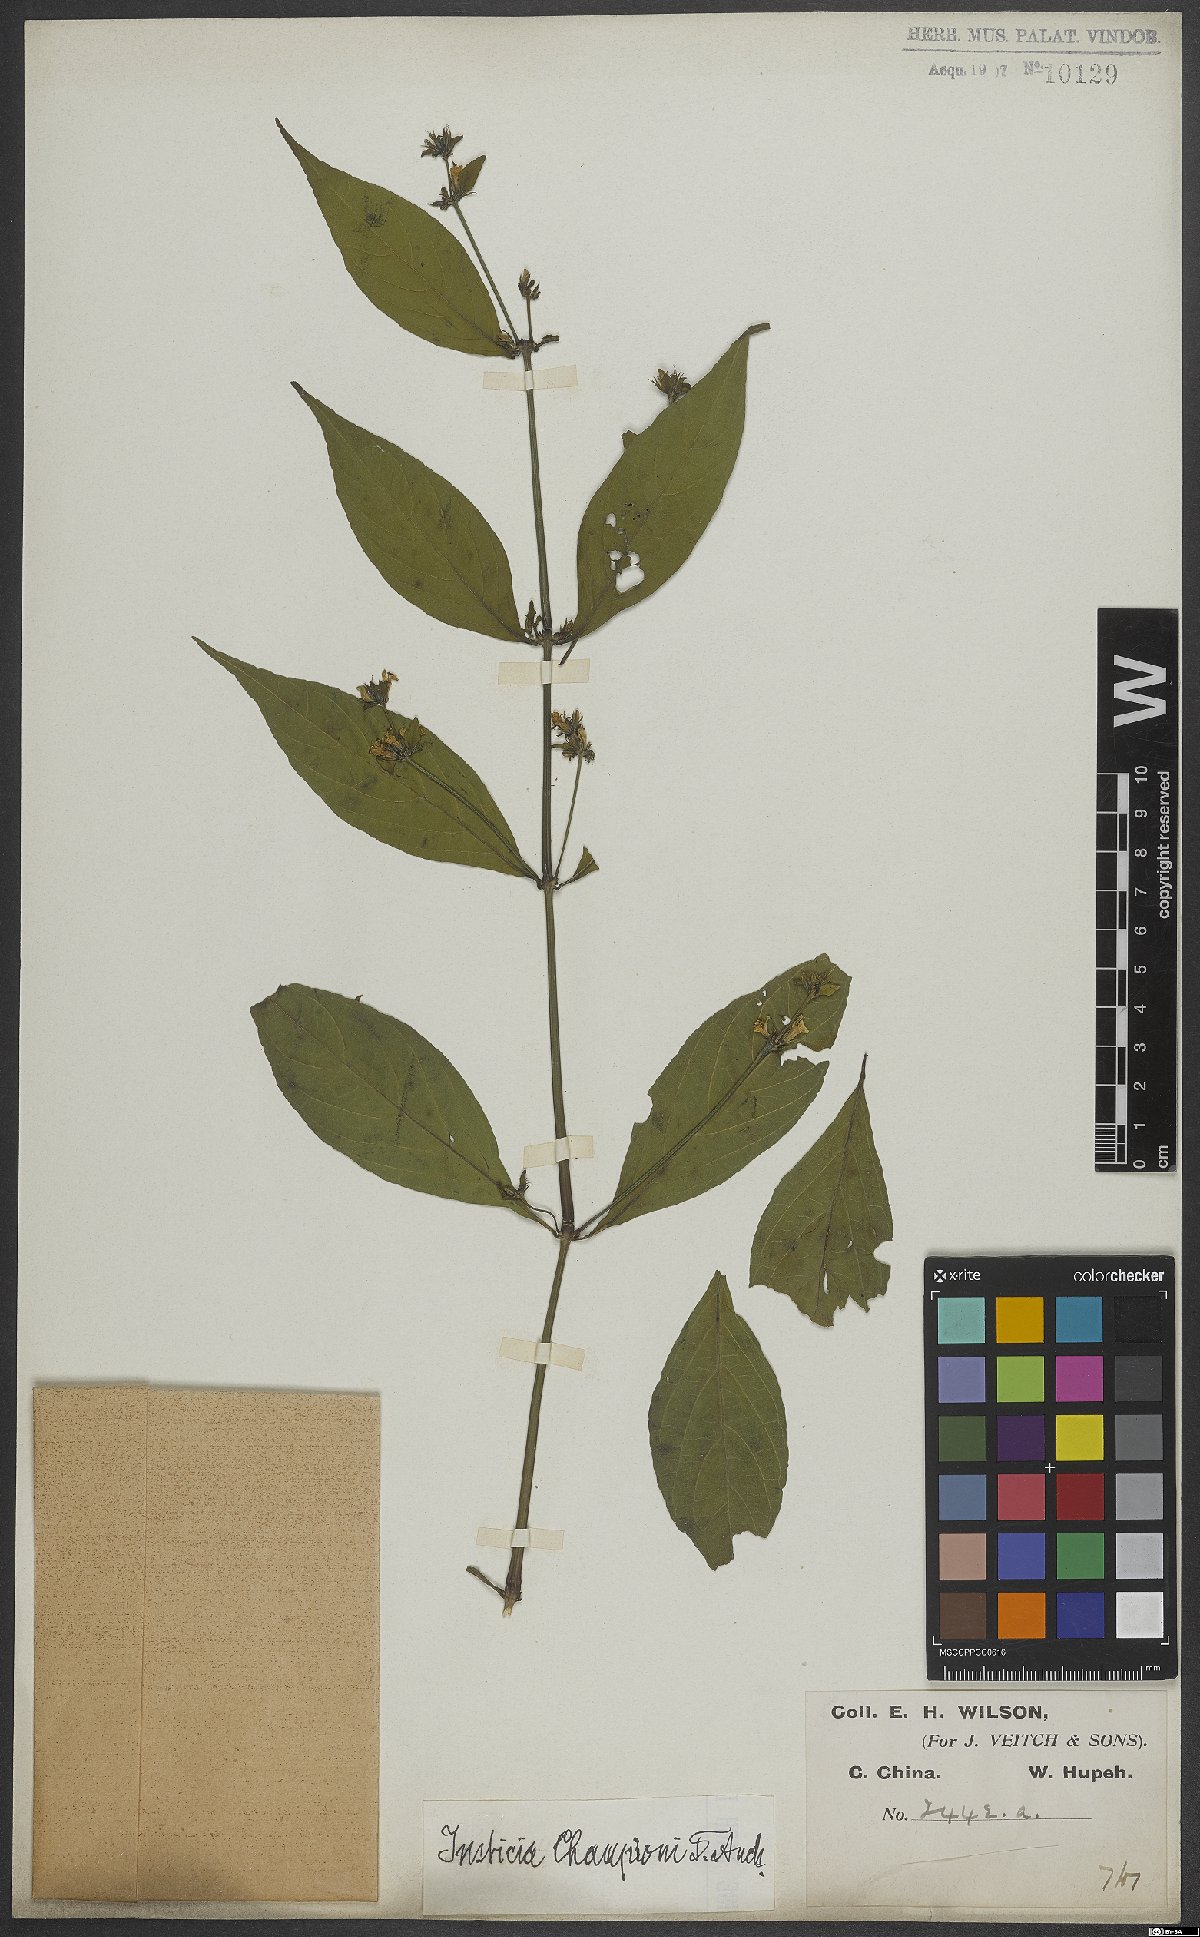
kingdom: Plantae
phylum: Tracheophyta
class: Magnoliopsida
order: Lamiales
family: Acanthaceae
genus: Justicia
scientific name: Justicia championii
